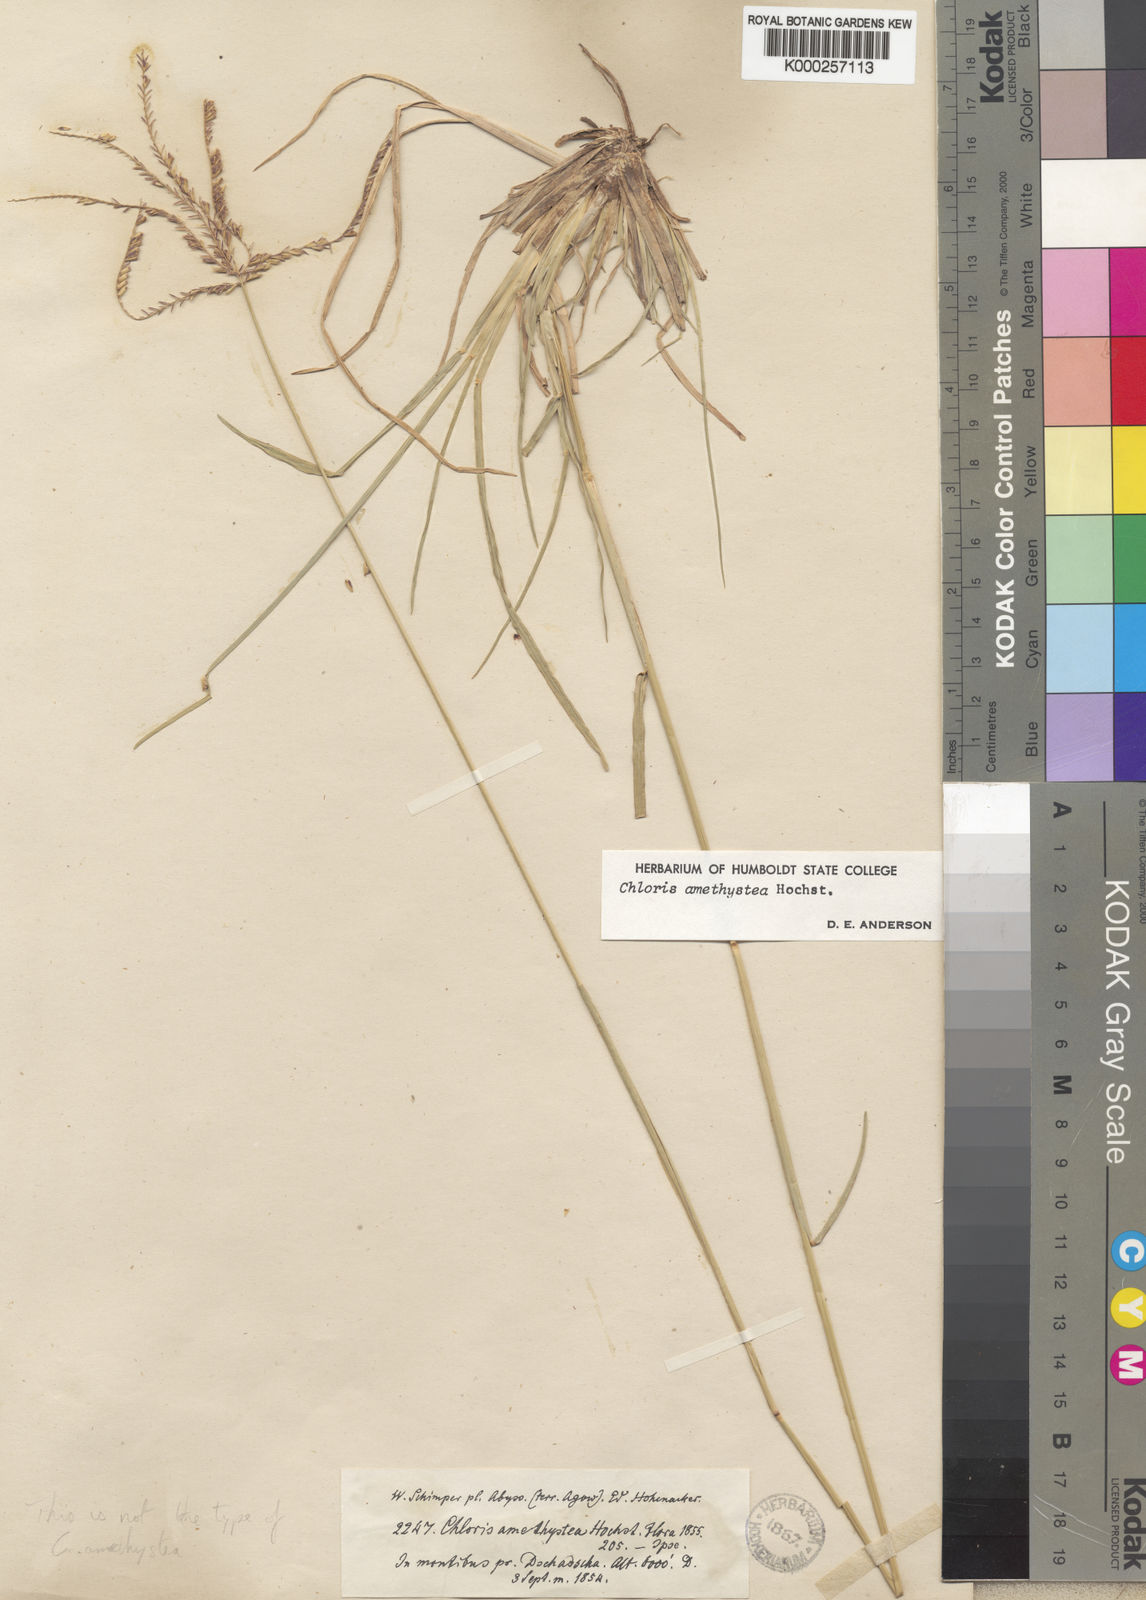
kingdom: Plantae
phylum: Tracheophyta
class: Liliopsida
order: Poales
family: Poaceae
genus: Chloris
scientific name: Chloris amethystea
